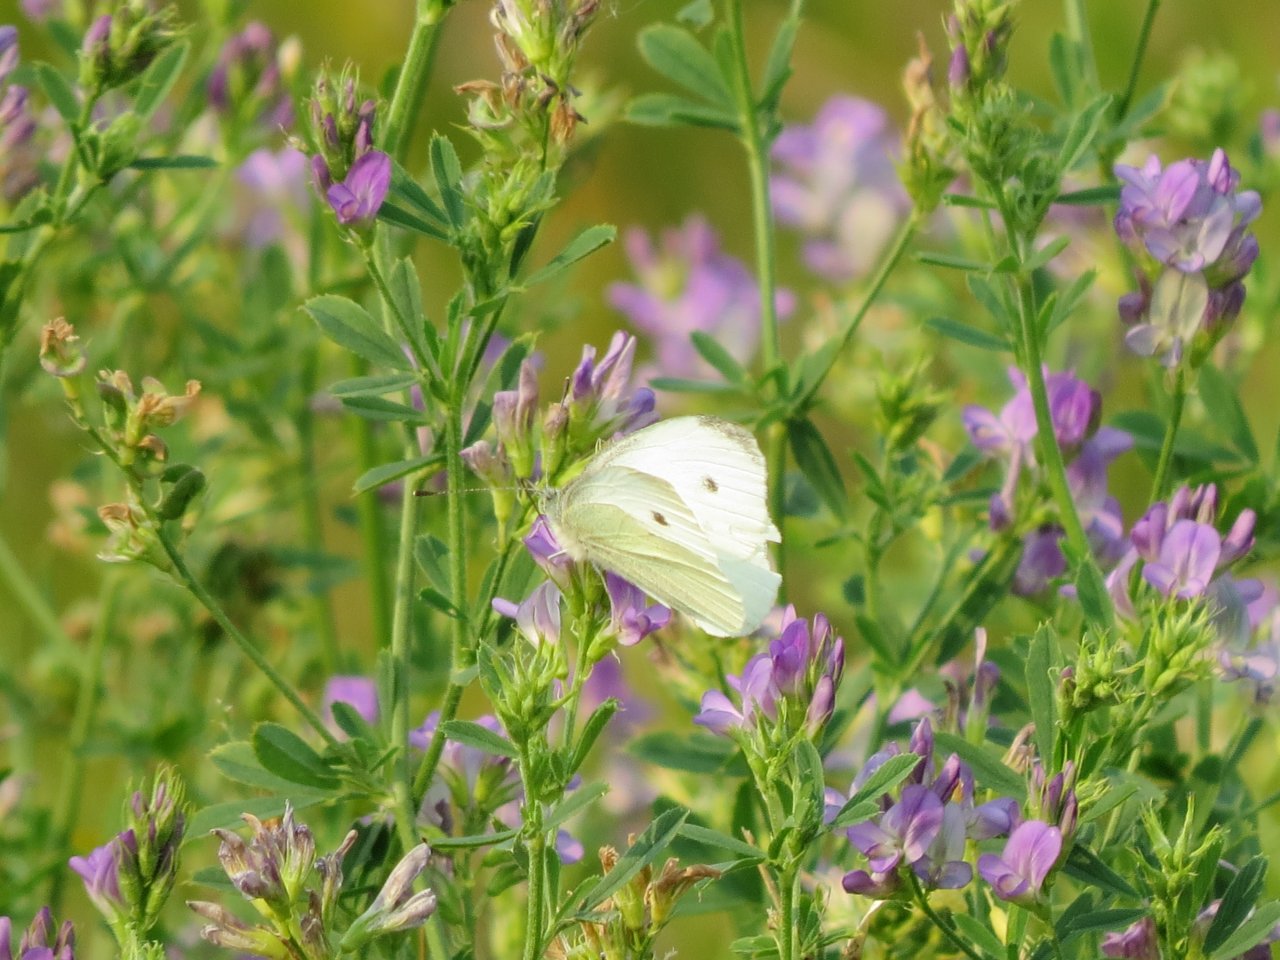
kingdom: Animalia
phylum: Arthropoda
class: Insecta
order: Lepidoptera
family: Pieridae
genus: Pieris
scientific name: Pieris rapae
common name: Cabbage White
